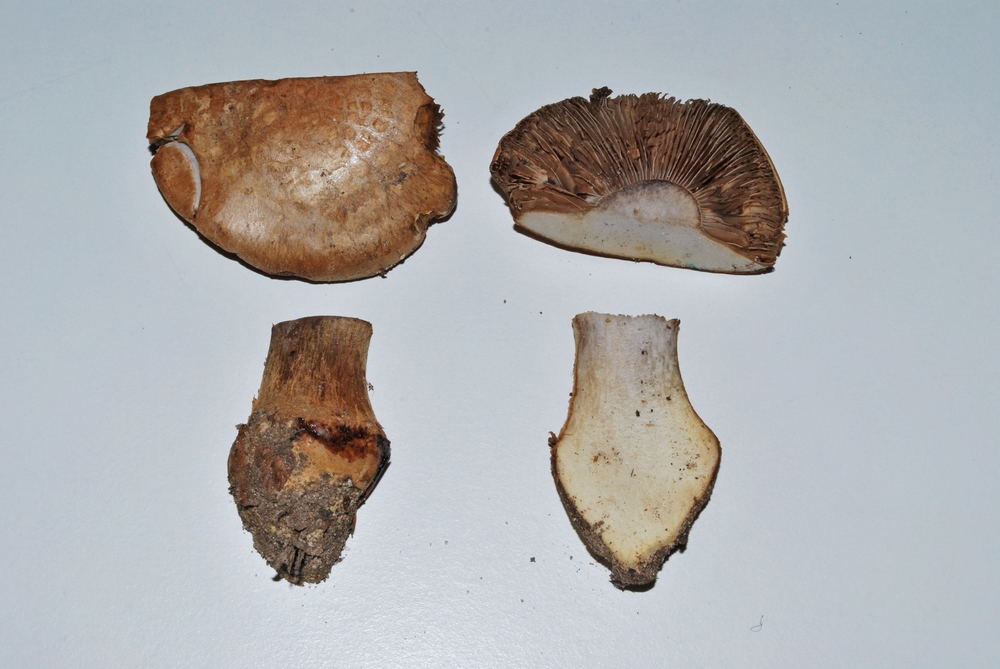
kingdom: Fungi
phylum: Basidiomycota
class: Agaricomycetes
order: Agaricales
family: Cortinariaceae
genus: Phlegmacium
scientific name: Phlegmacium luhmannii
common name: musegrå slørhat
